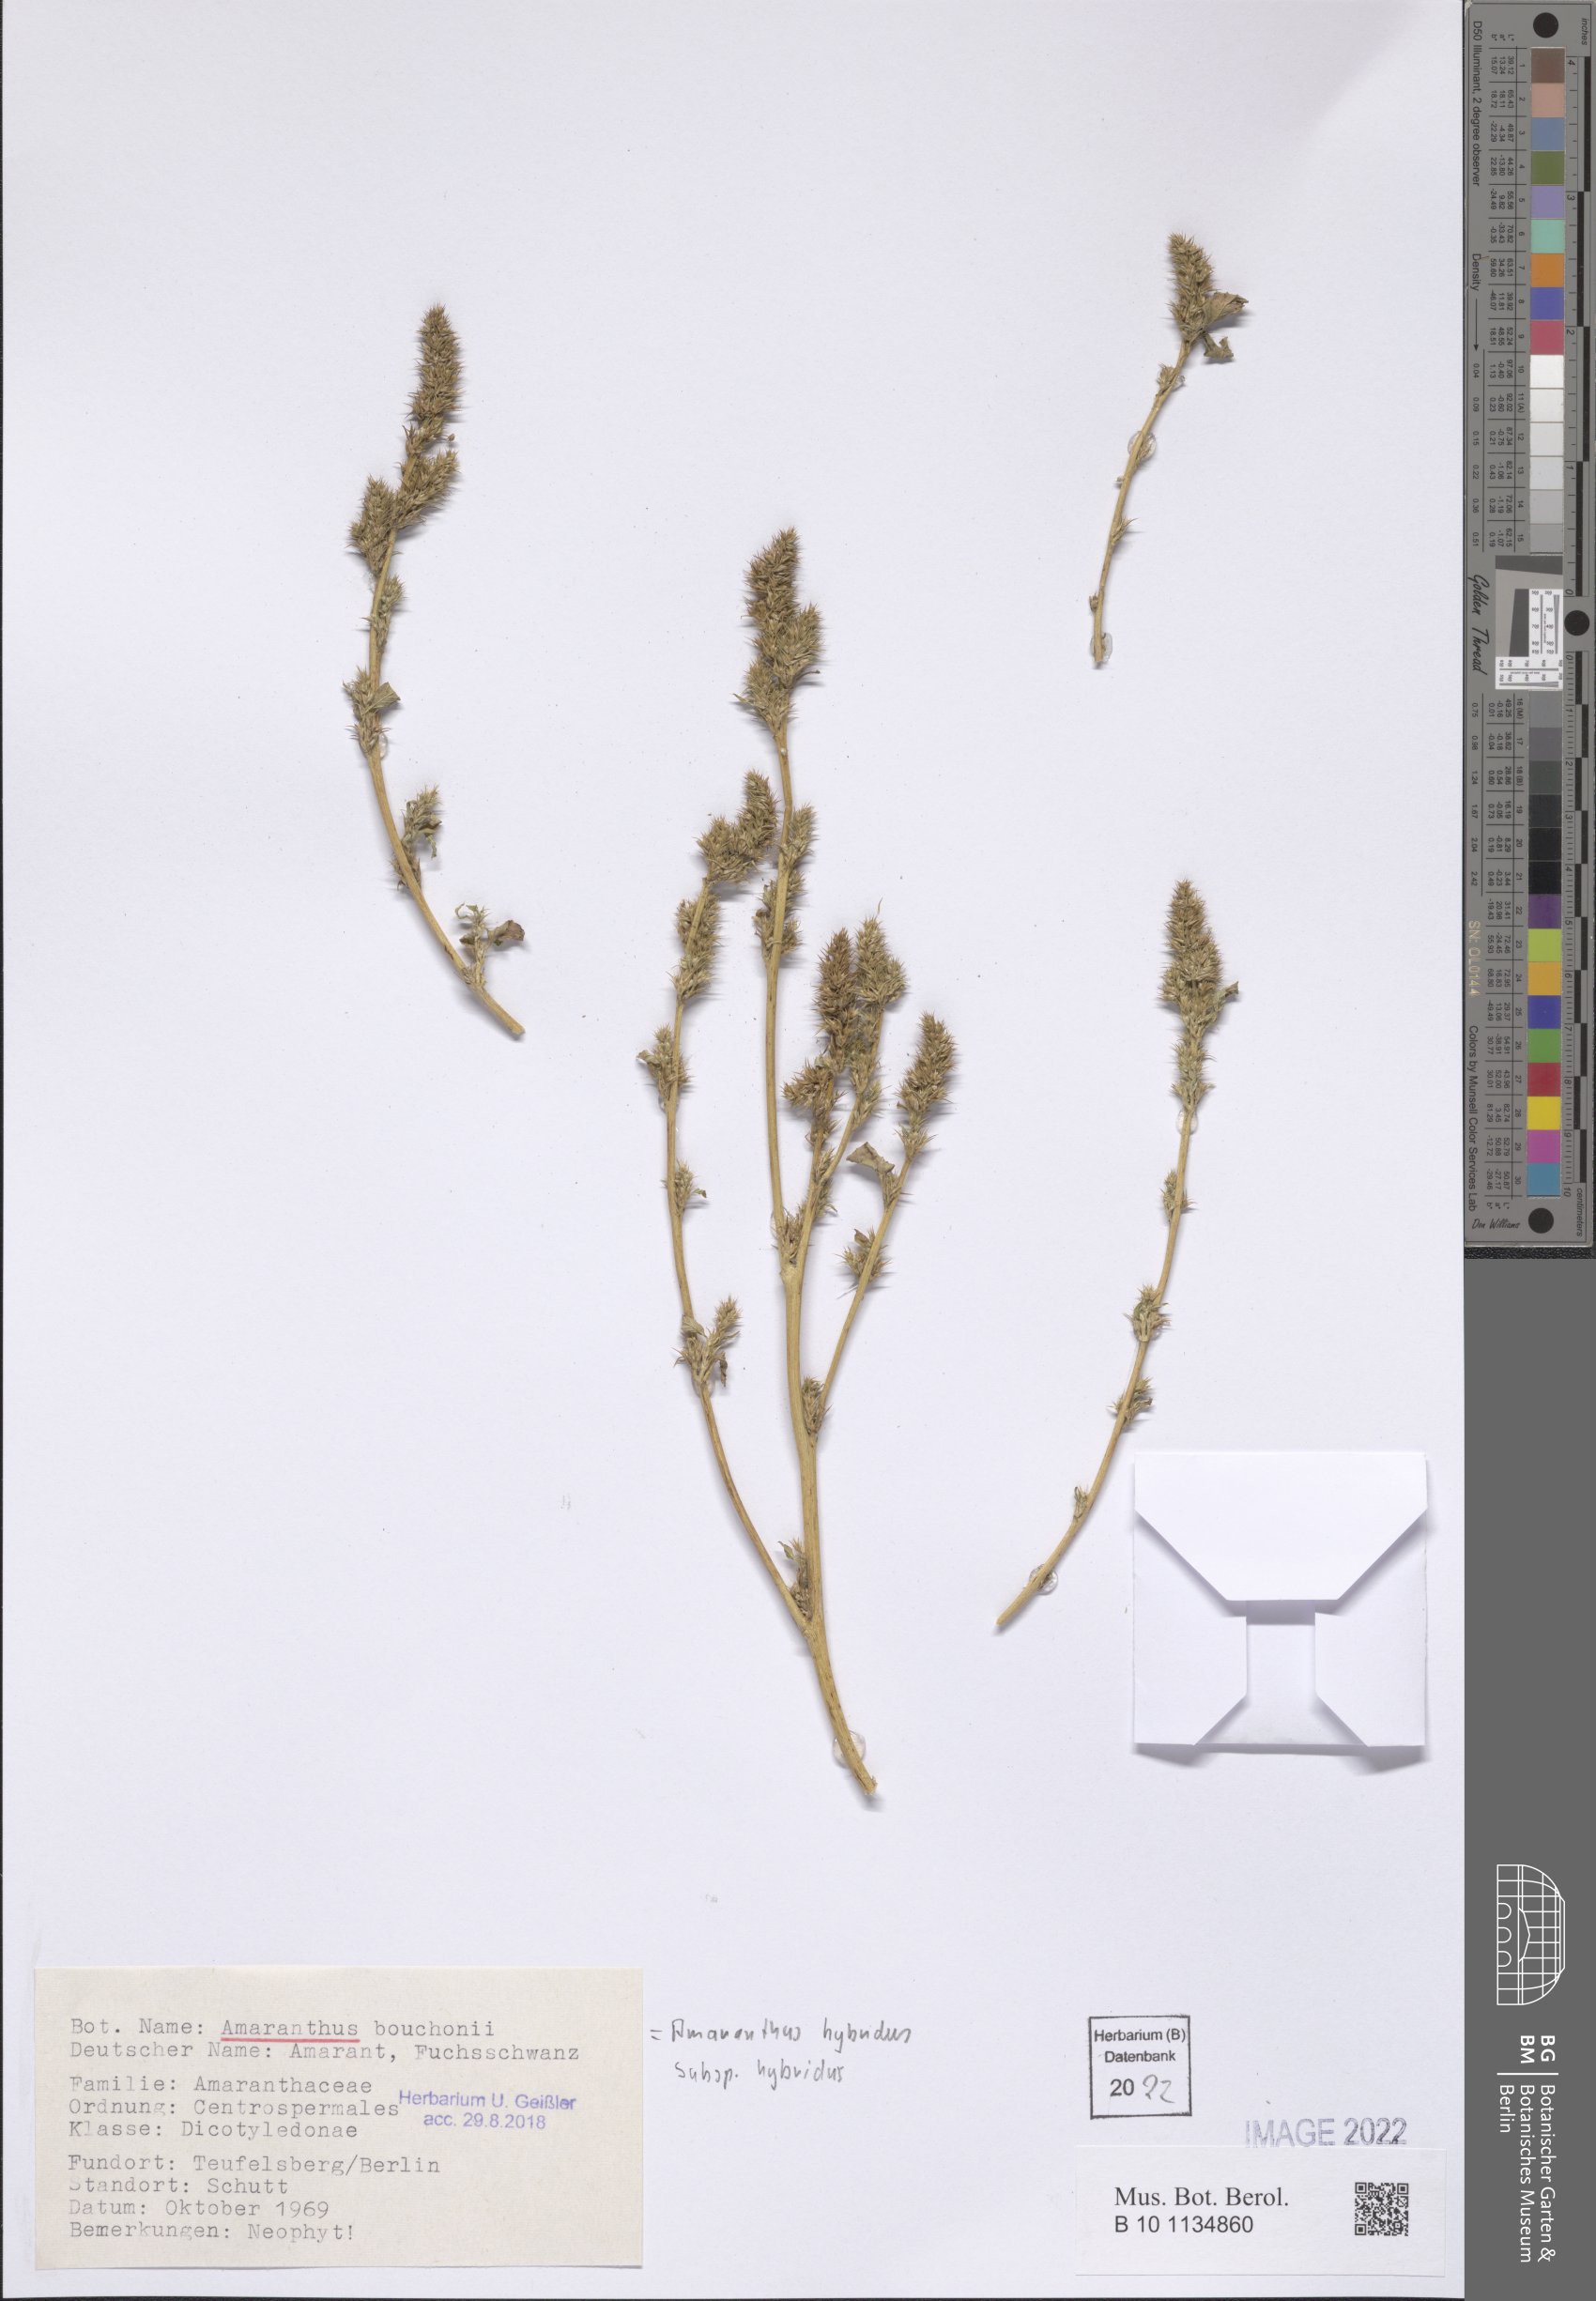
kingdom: Plantae
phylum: Tracheophyta
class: Magnoliopsida
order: Caryophyllales
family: Amaranthaceae
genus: Amaranthus
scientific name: Amaranthus hybridus
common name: Green amaranth
